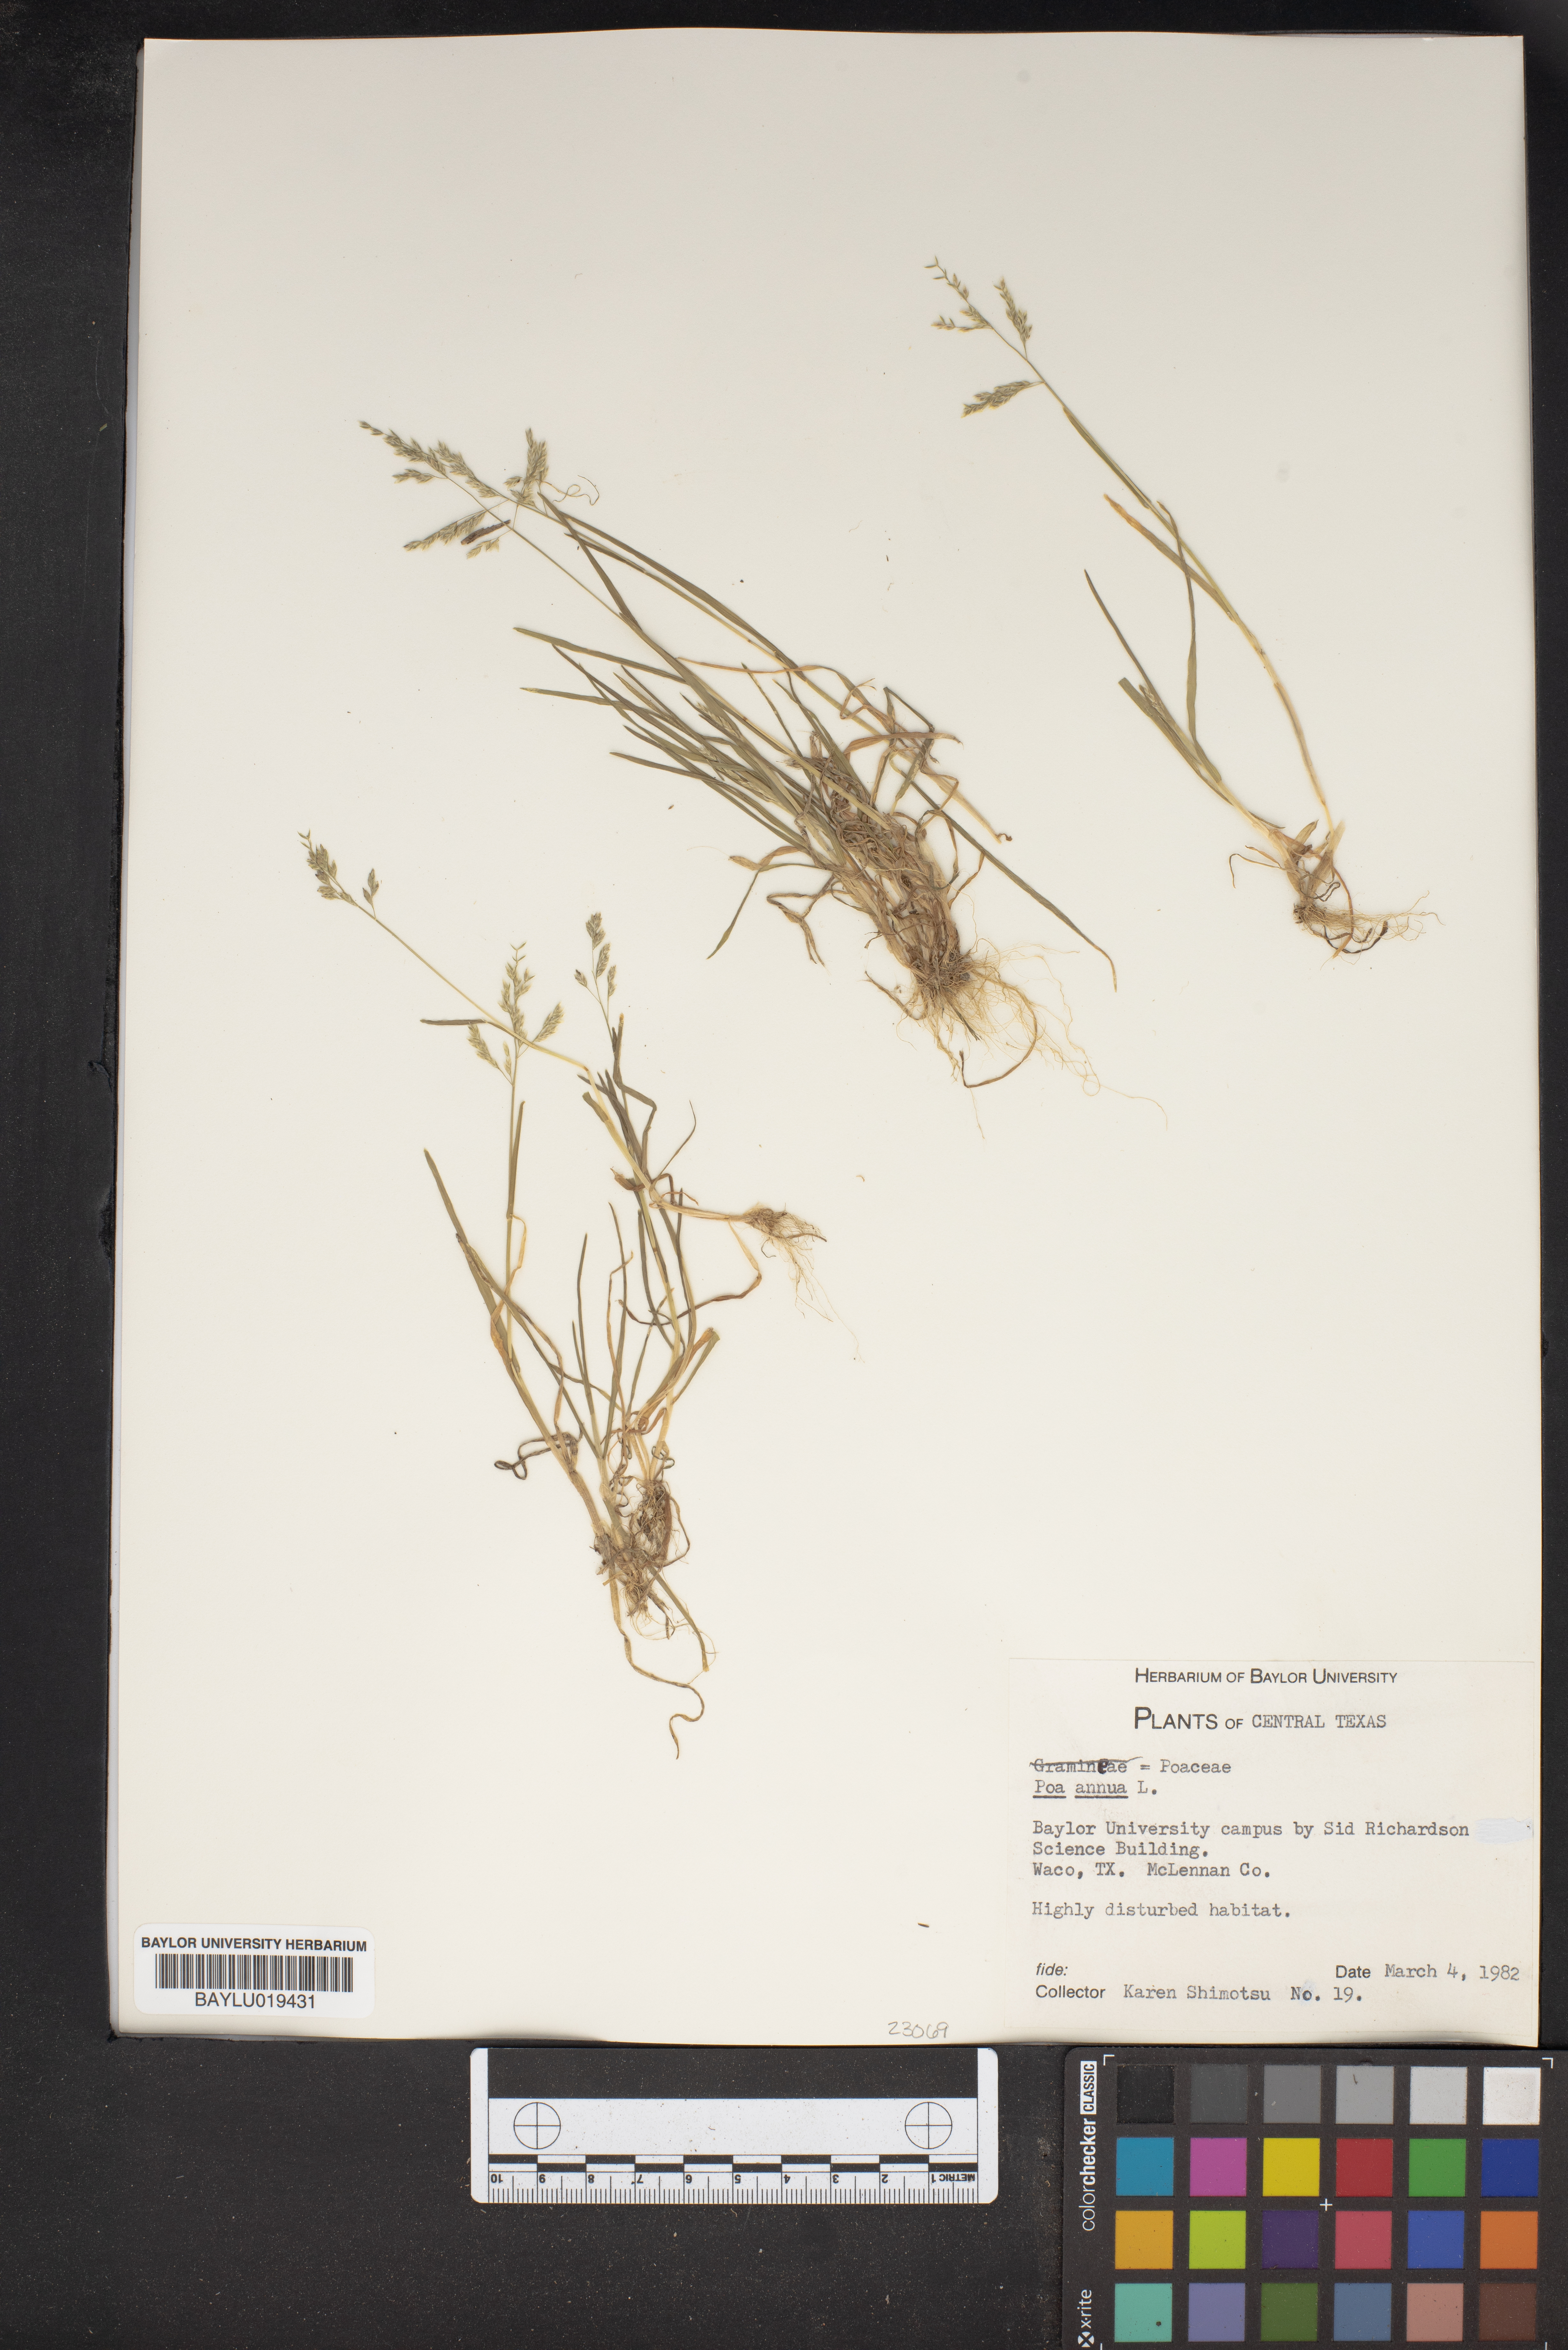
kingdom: Plantae
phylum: Tracheophyta
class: Liliopsida
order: Poales
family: Poaceae
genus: Poa
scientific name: Poa annua
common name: Annual bluegrass
